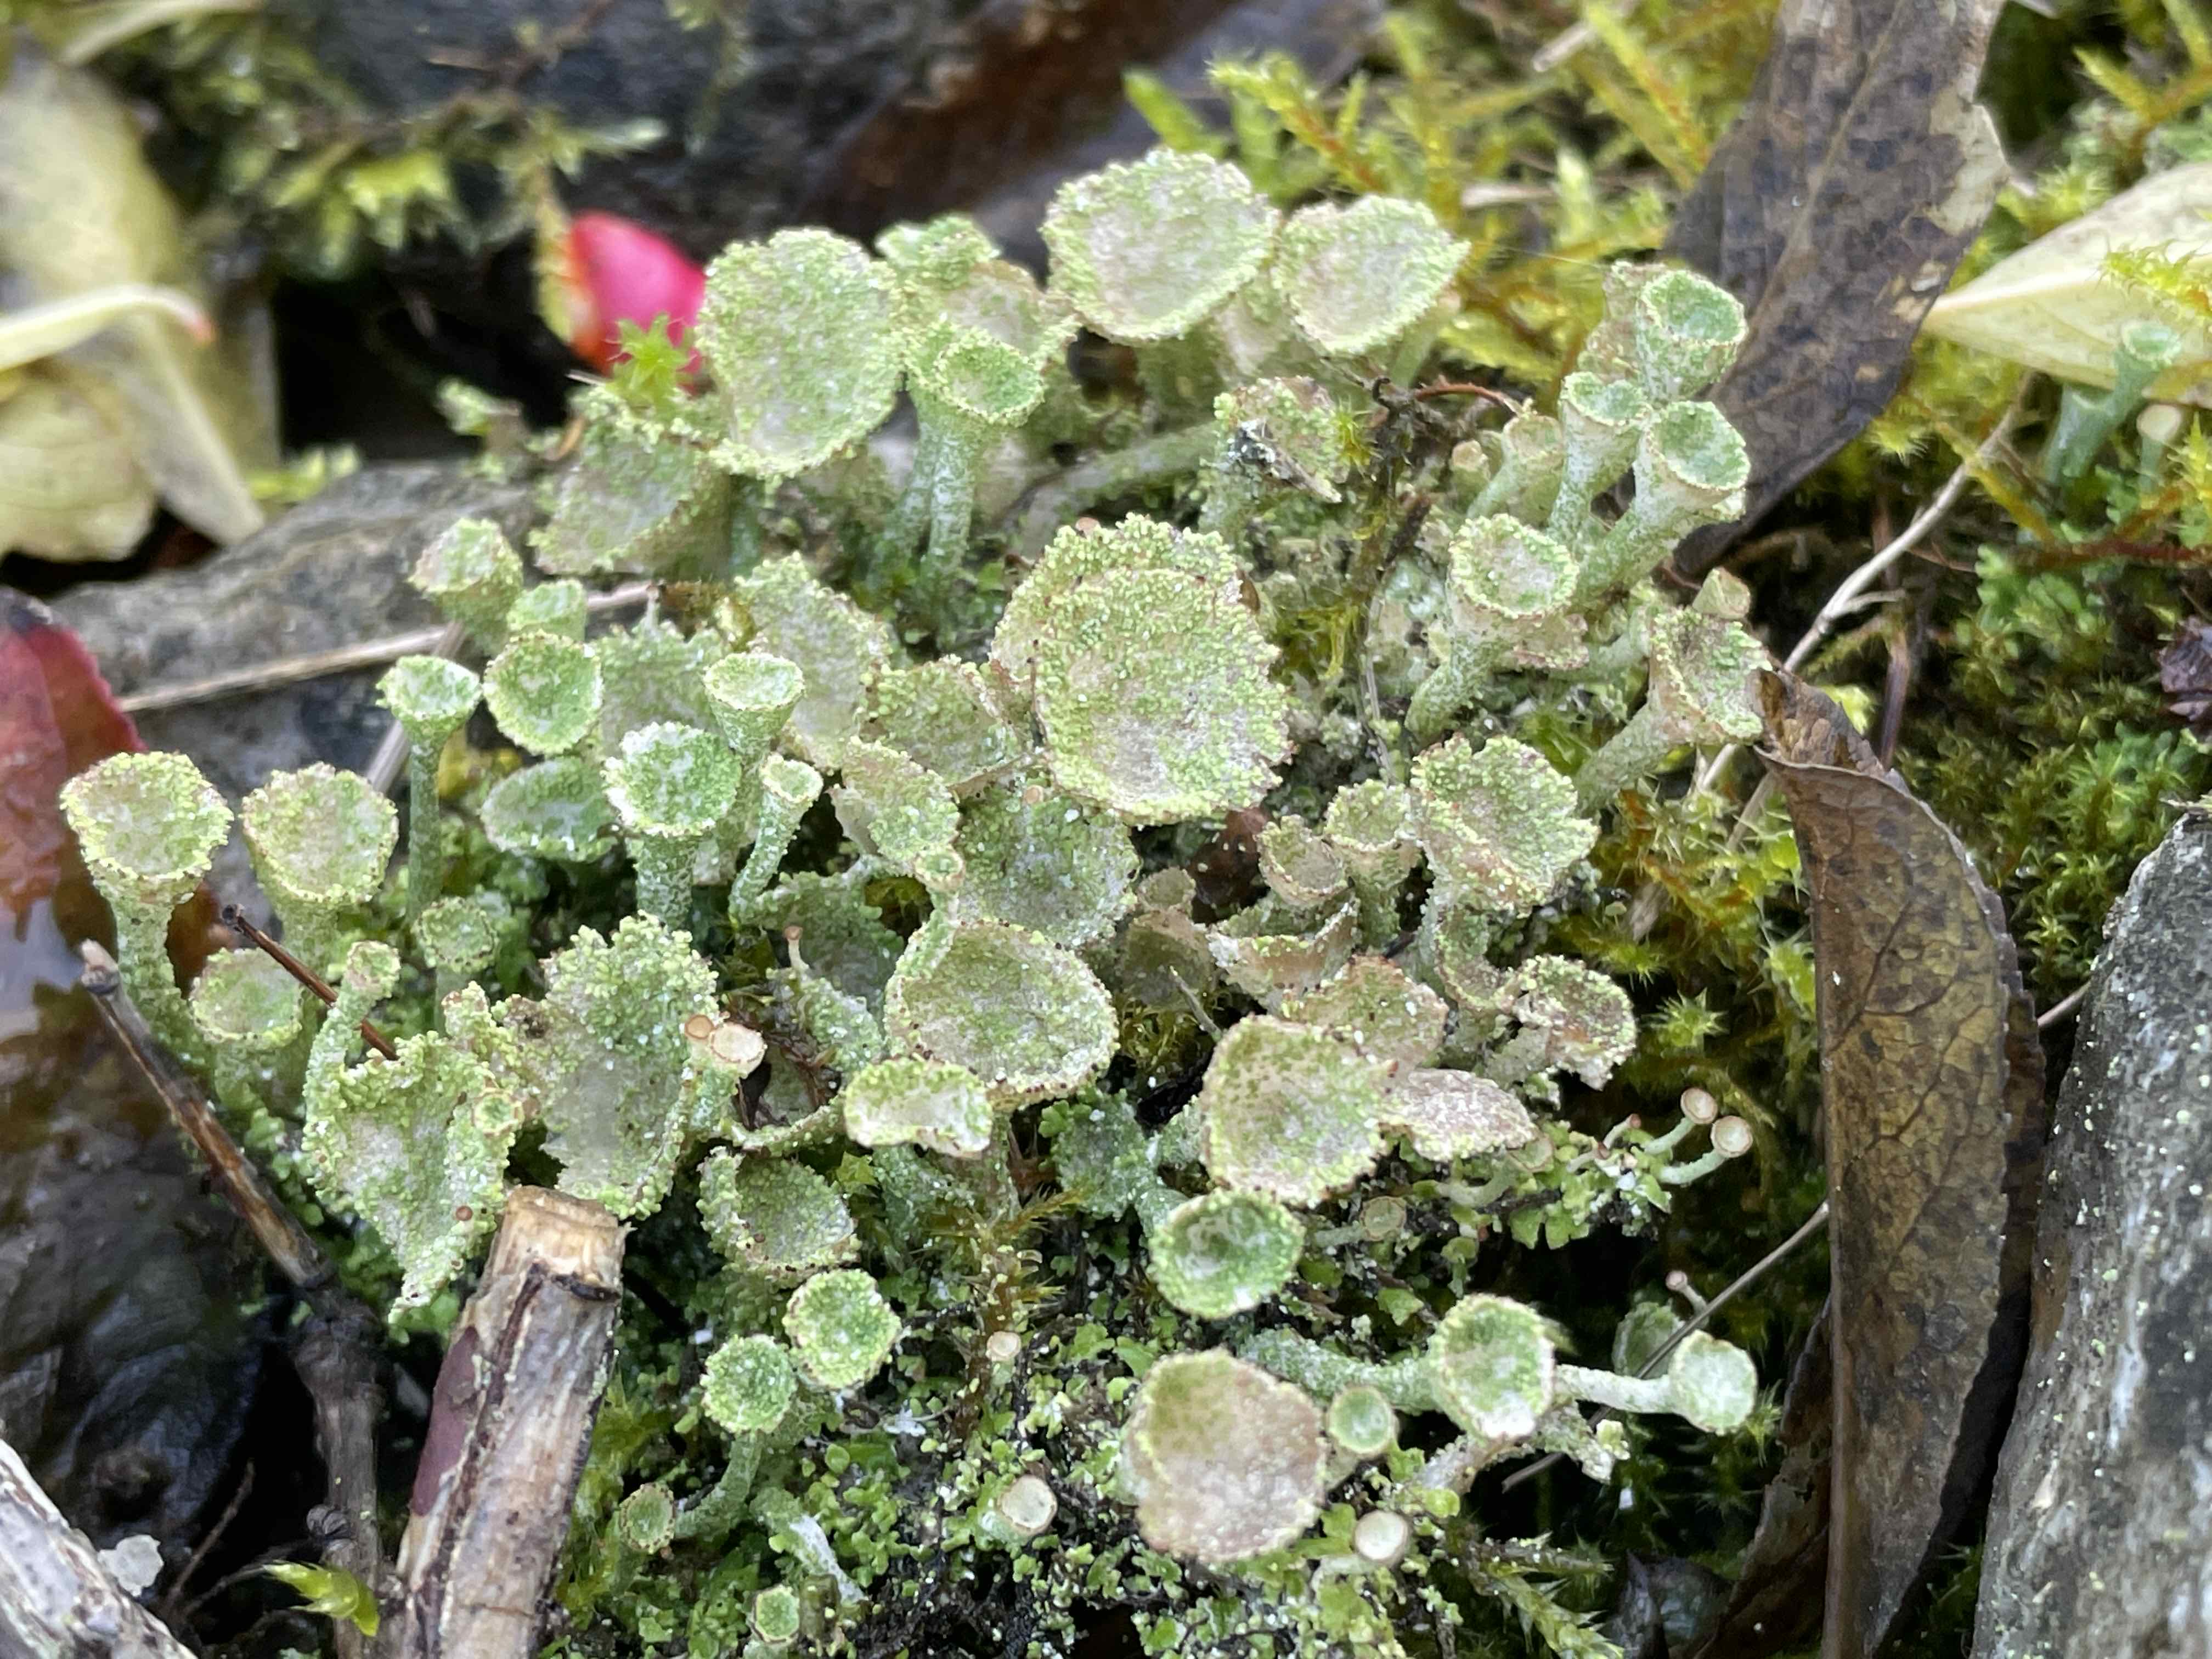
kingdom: Fungi
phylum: Ascomycota
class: Lecanoromycetes
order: Lecanorales
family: Cladoniaceae
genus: Cladonia
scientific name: Cladonia
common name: brungrøn bægerlav
